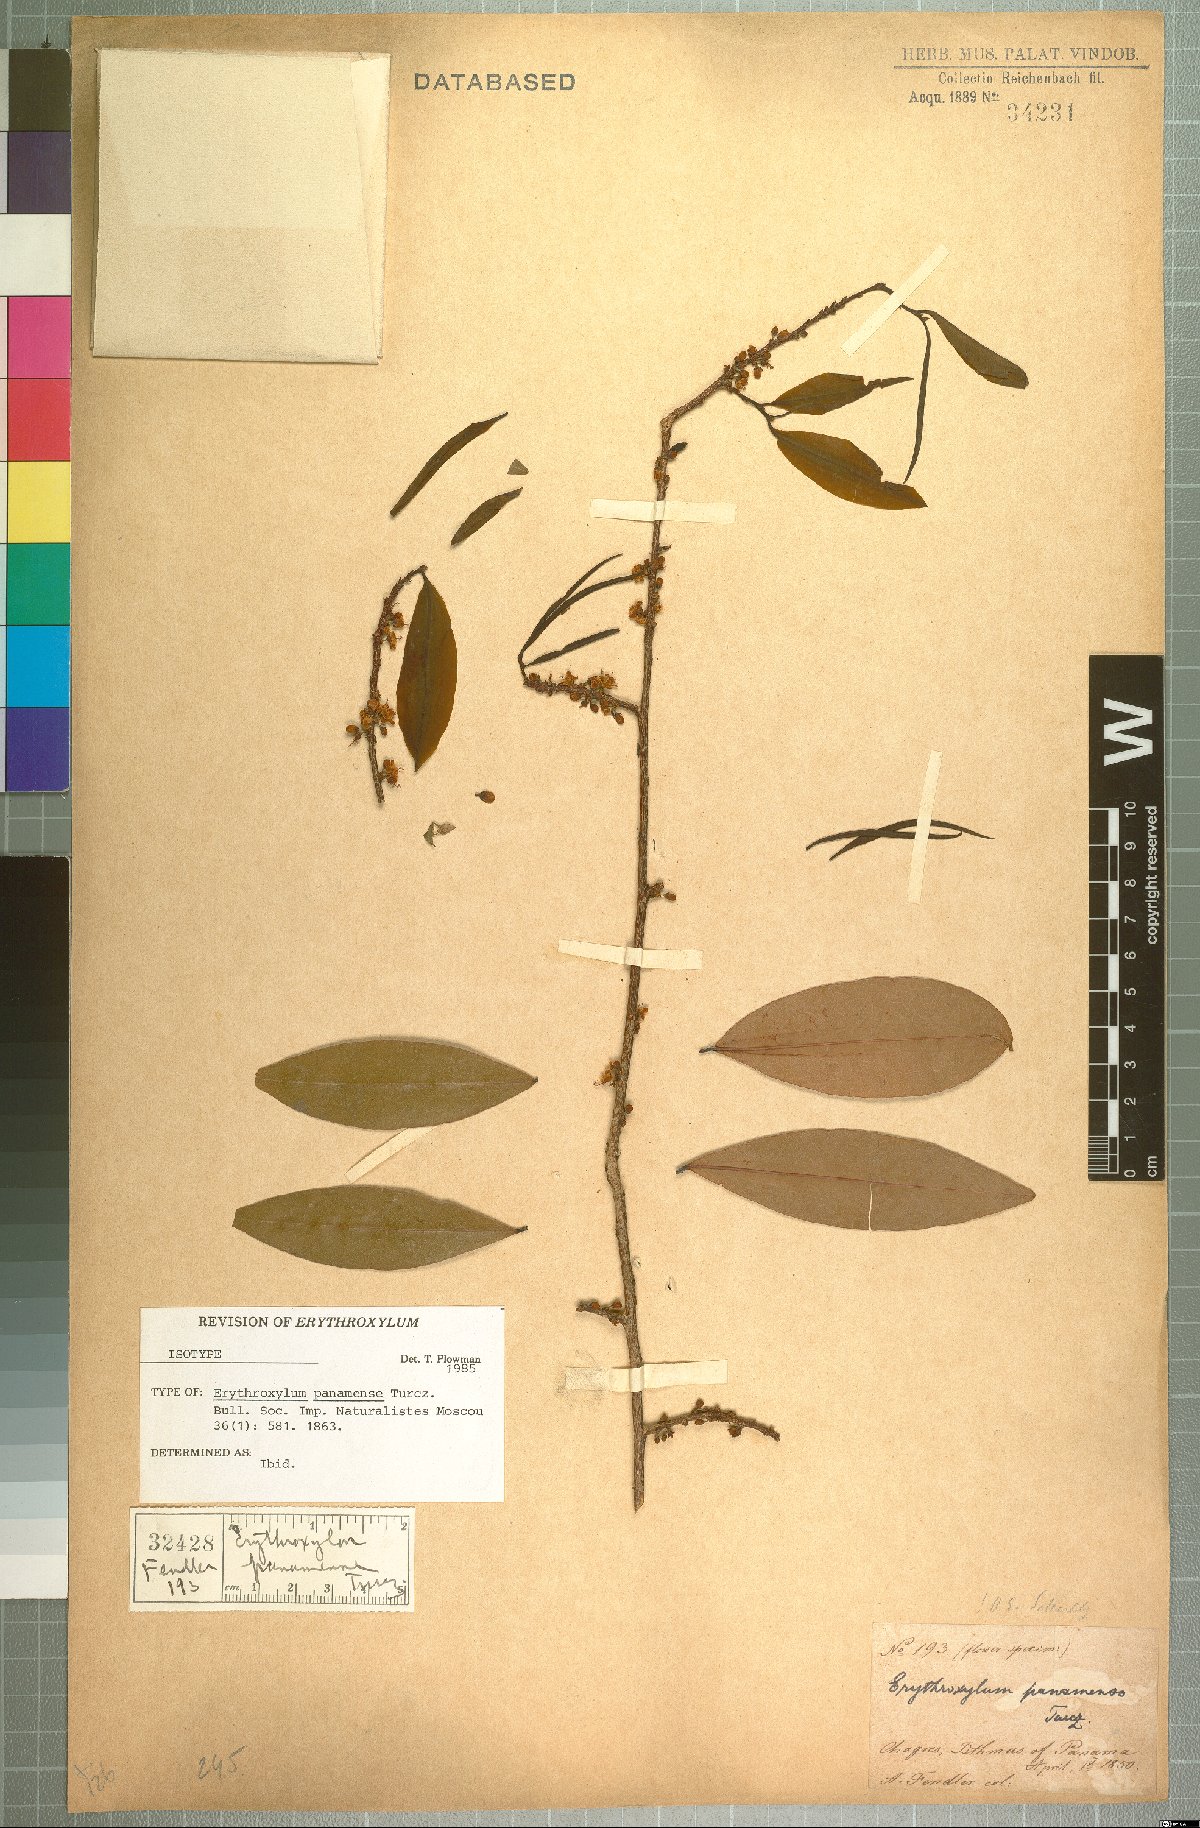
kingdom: Plantae
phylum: Tracheophyta
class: Magnoliopsida
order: Malpighiales
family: Erythroxylaceae
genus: Erythroxylum
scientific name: Erythroxylum panamense
